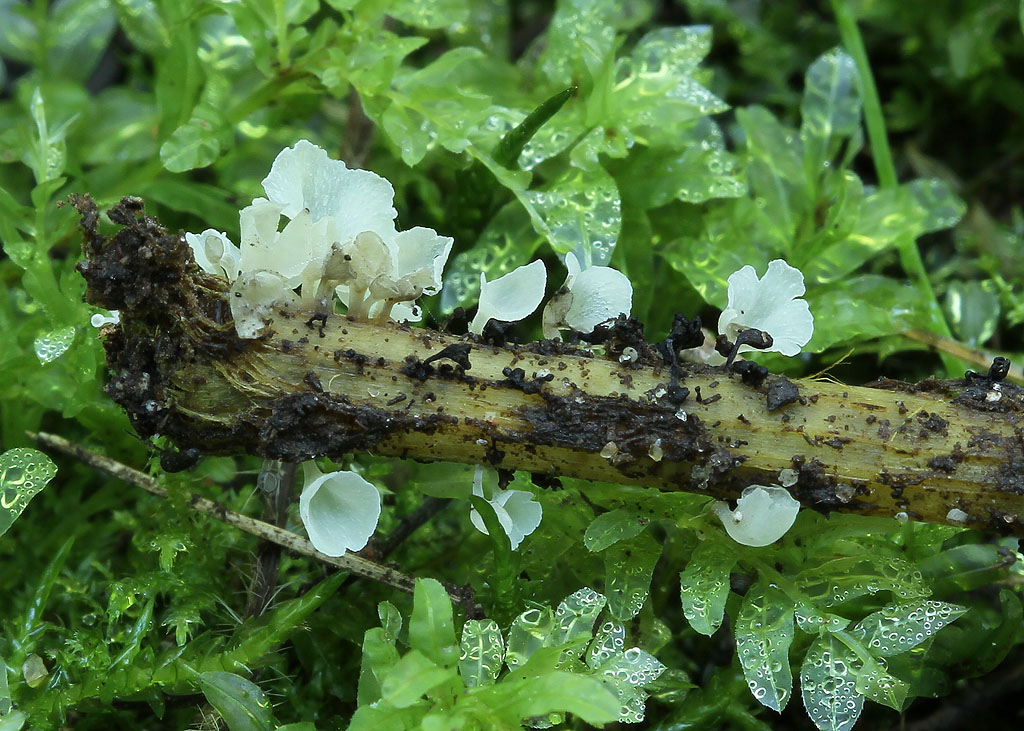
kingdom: Fungi
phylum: Basidiomycota
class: Agaricomycetes
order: Agaricales
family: Marasmiaceae
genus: Calyptella
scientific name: Calyptella capula
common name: hvidlig nældehue
